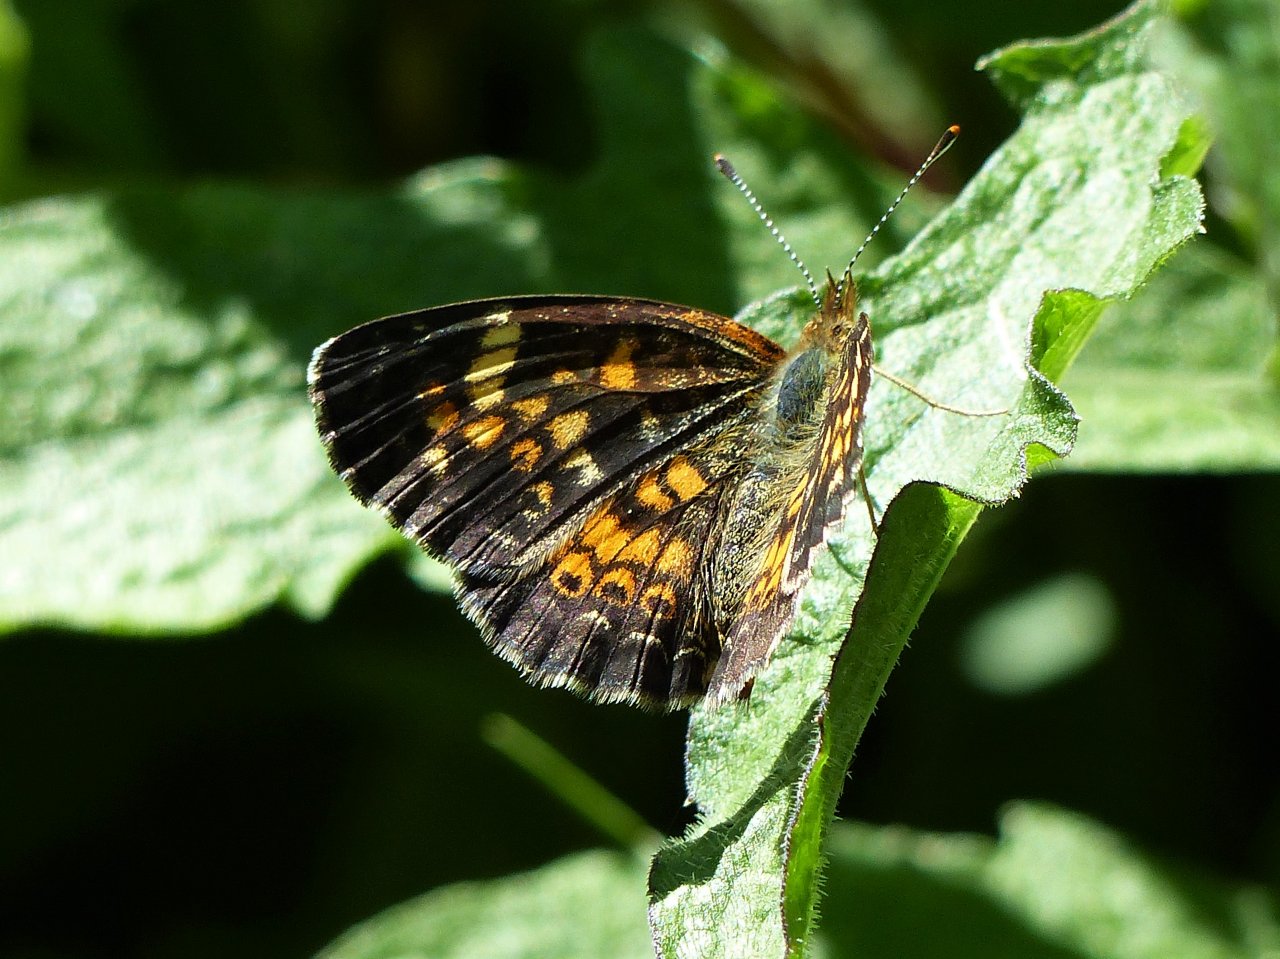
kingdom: Animalia
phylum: Arthropoda
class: Insecta
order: Lepidoptera
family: Nymphalidae
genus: Phyciodes
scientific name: Phyciodes tharos
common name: Pearl Crescent
